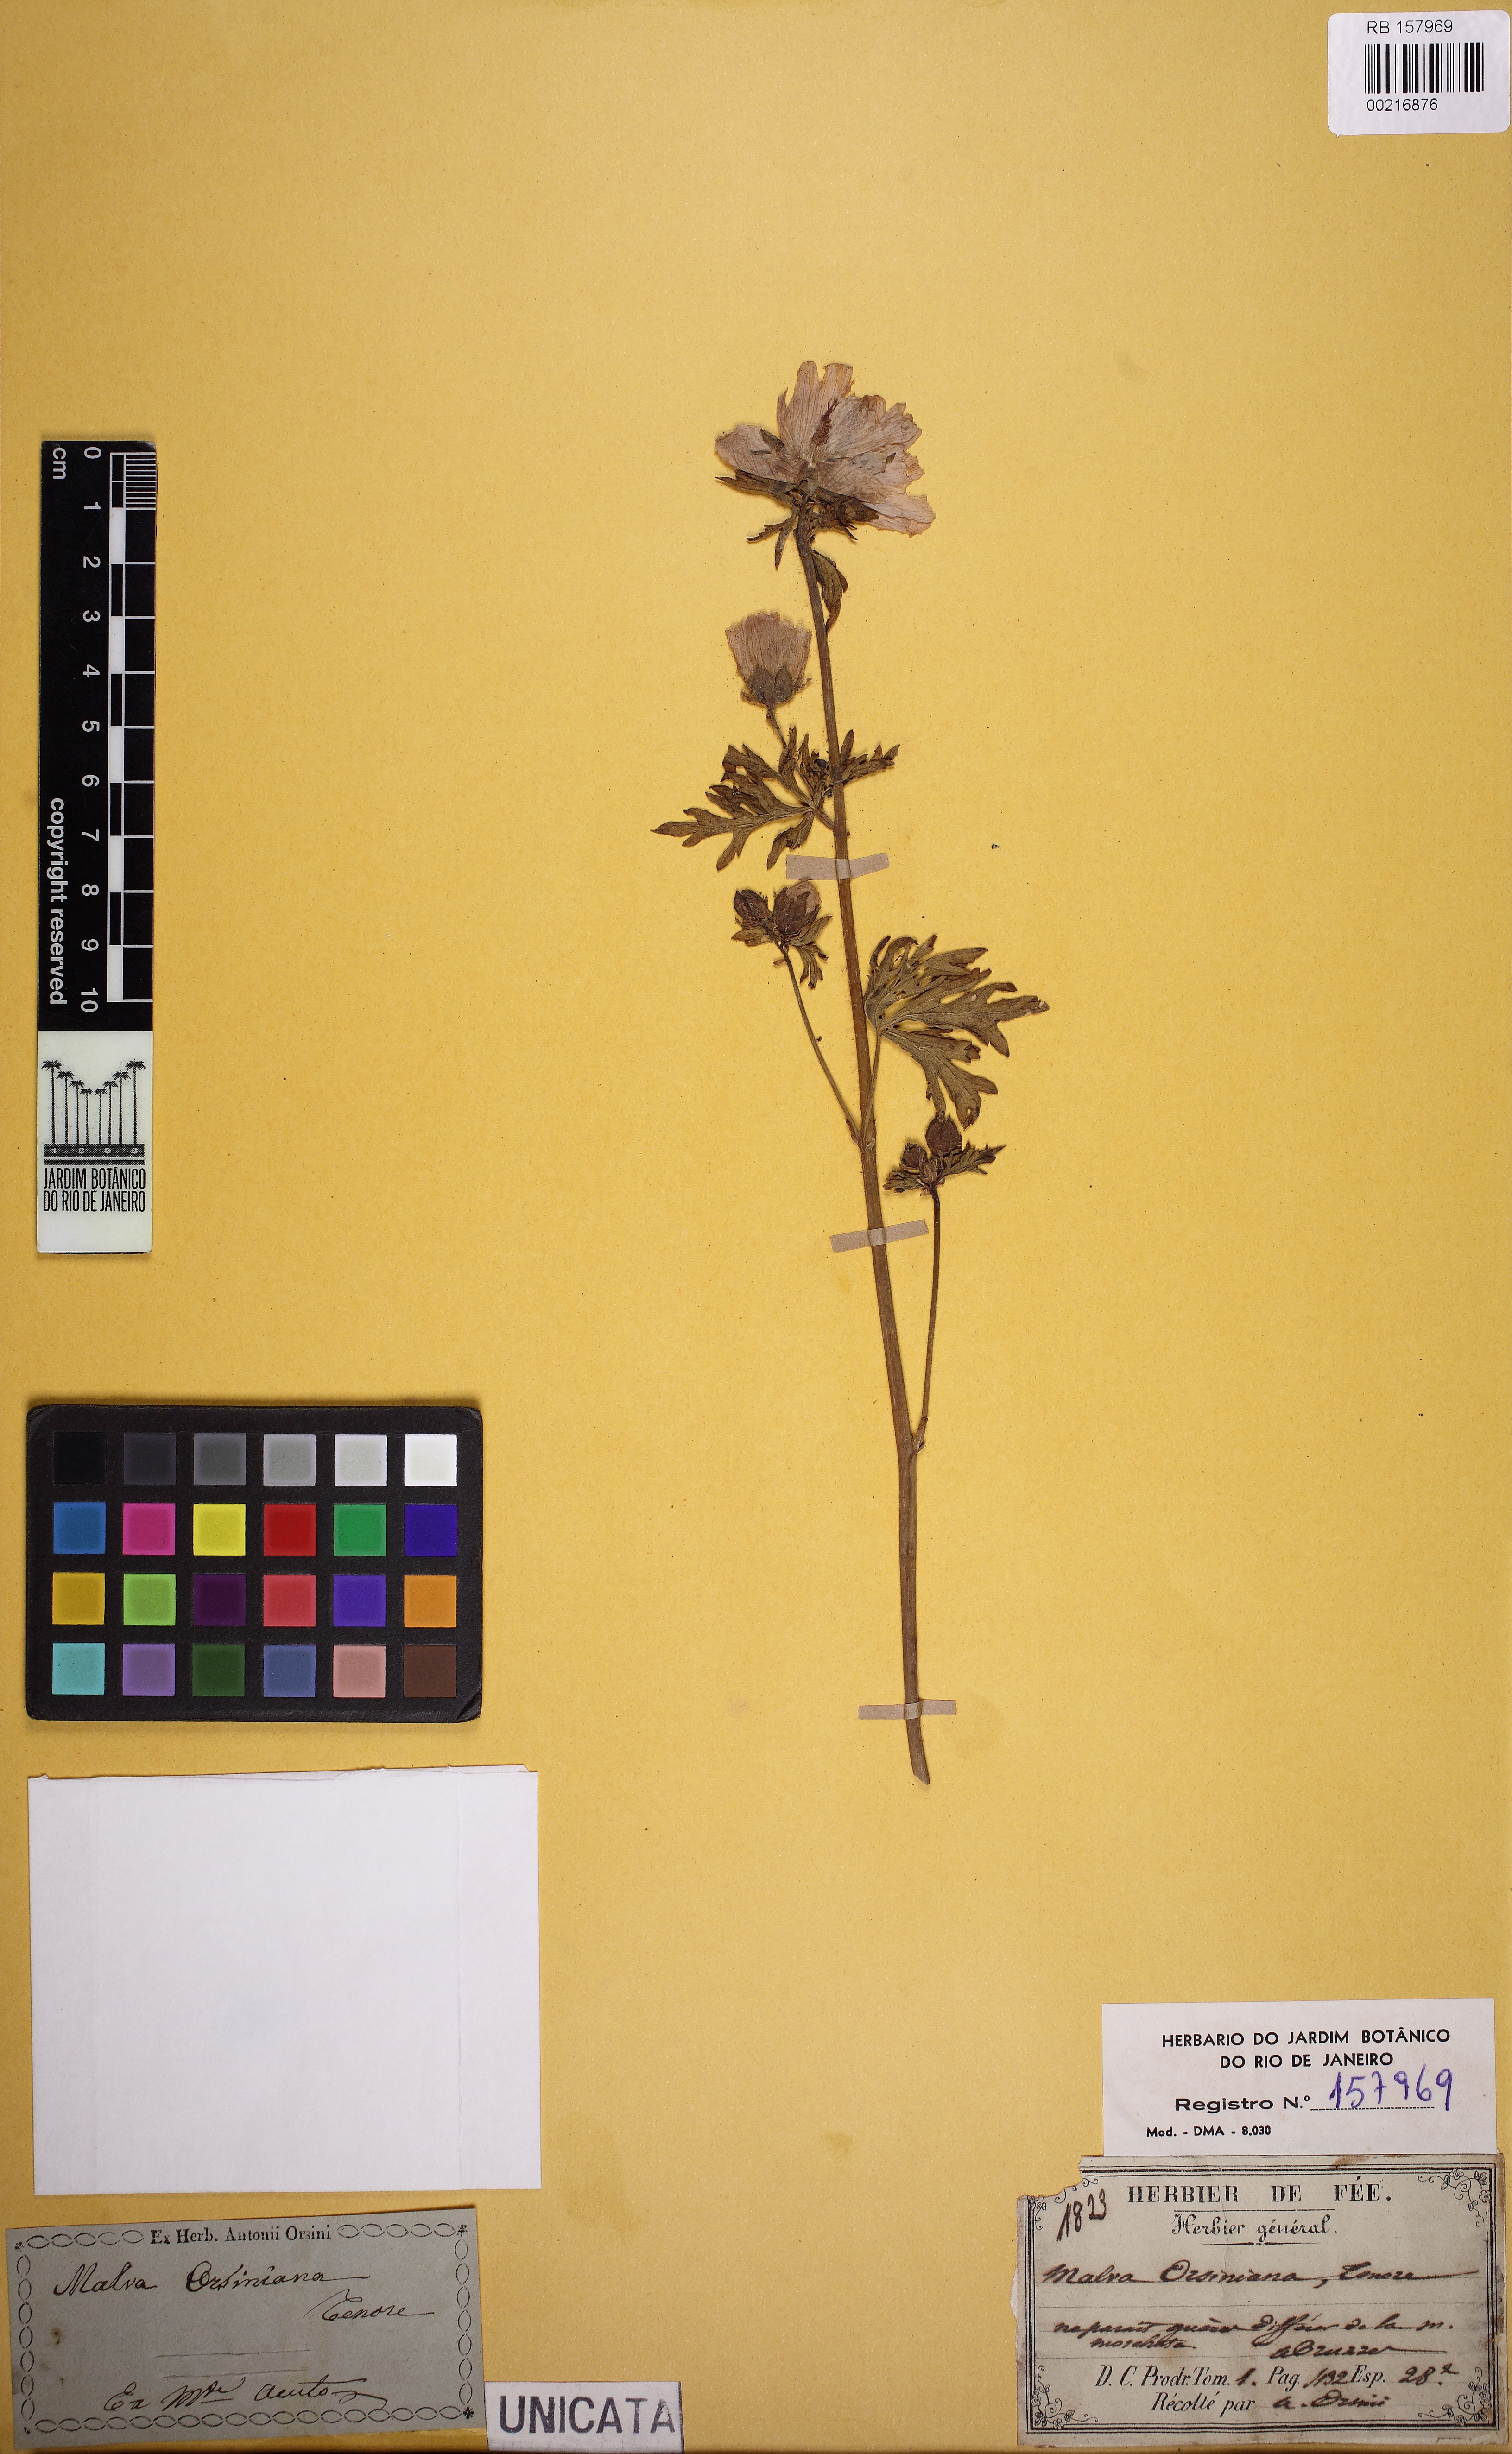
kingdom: Plantae
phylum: Tracheophyta
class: Magnoliopsida
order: Malvales
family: Malvaceae
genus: Malva
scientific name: Malva moschata
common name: Musk mallow
